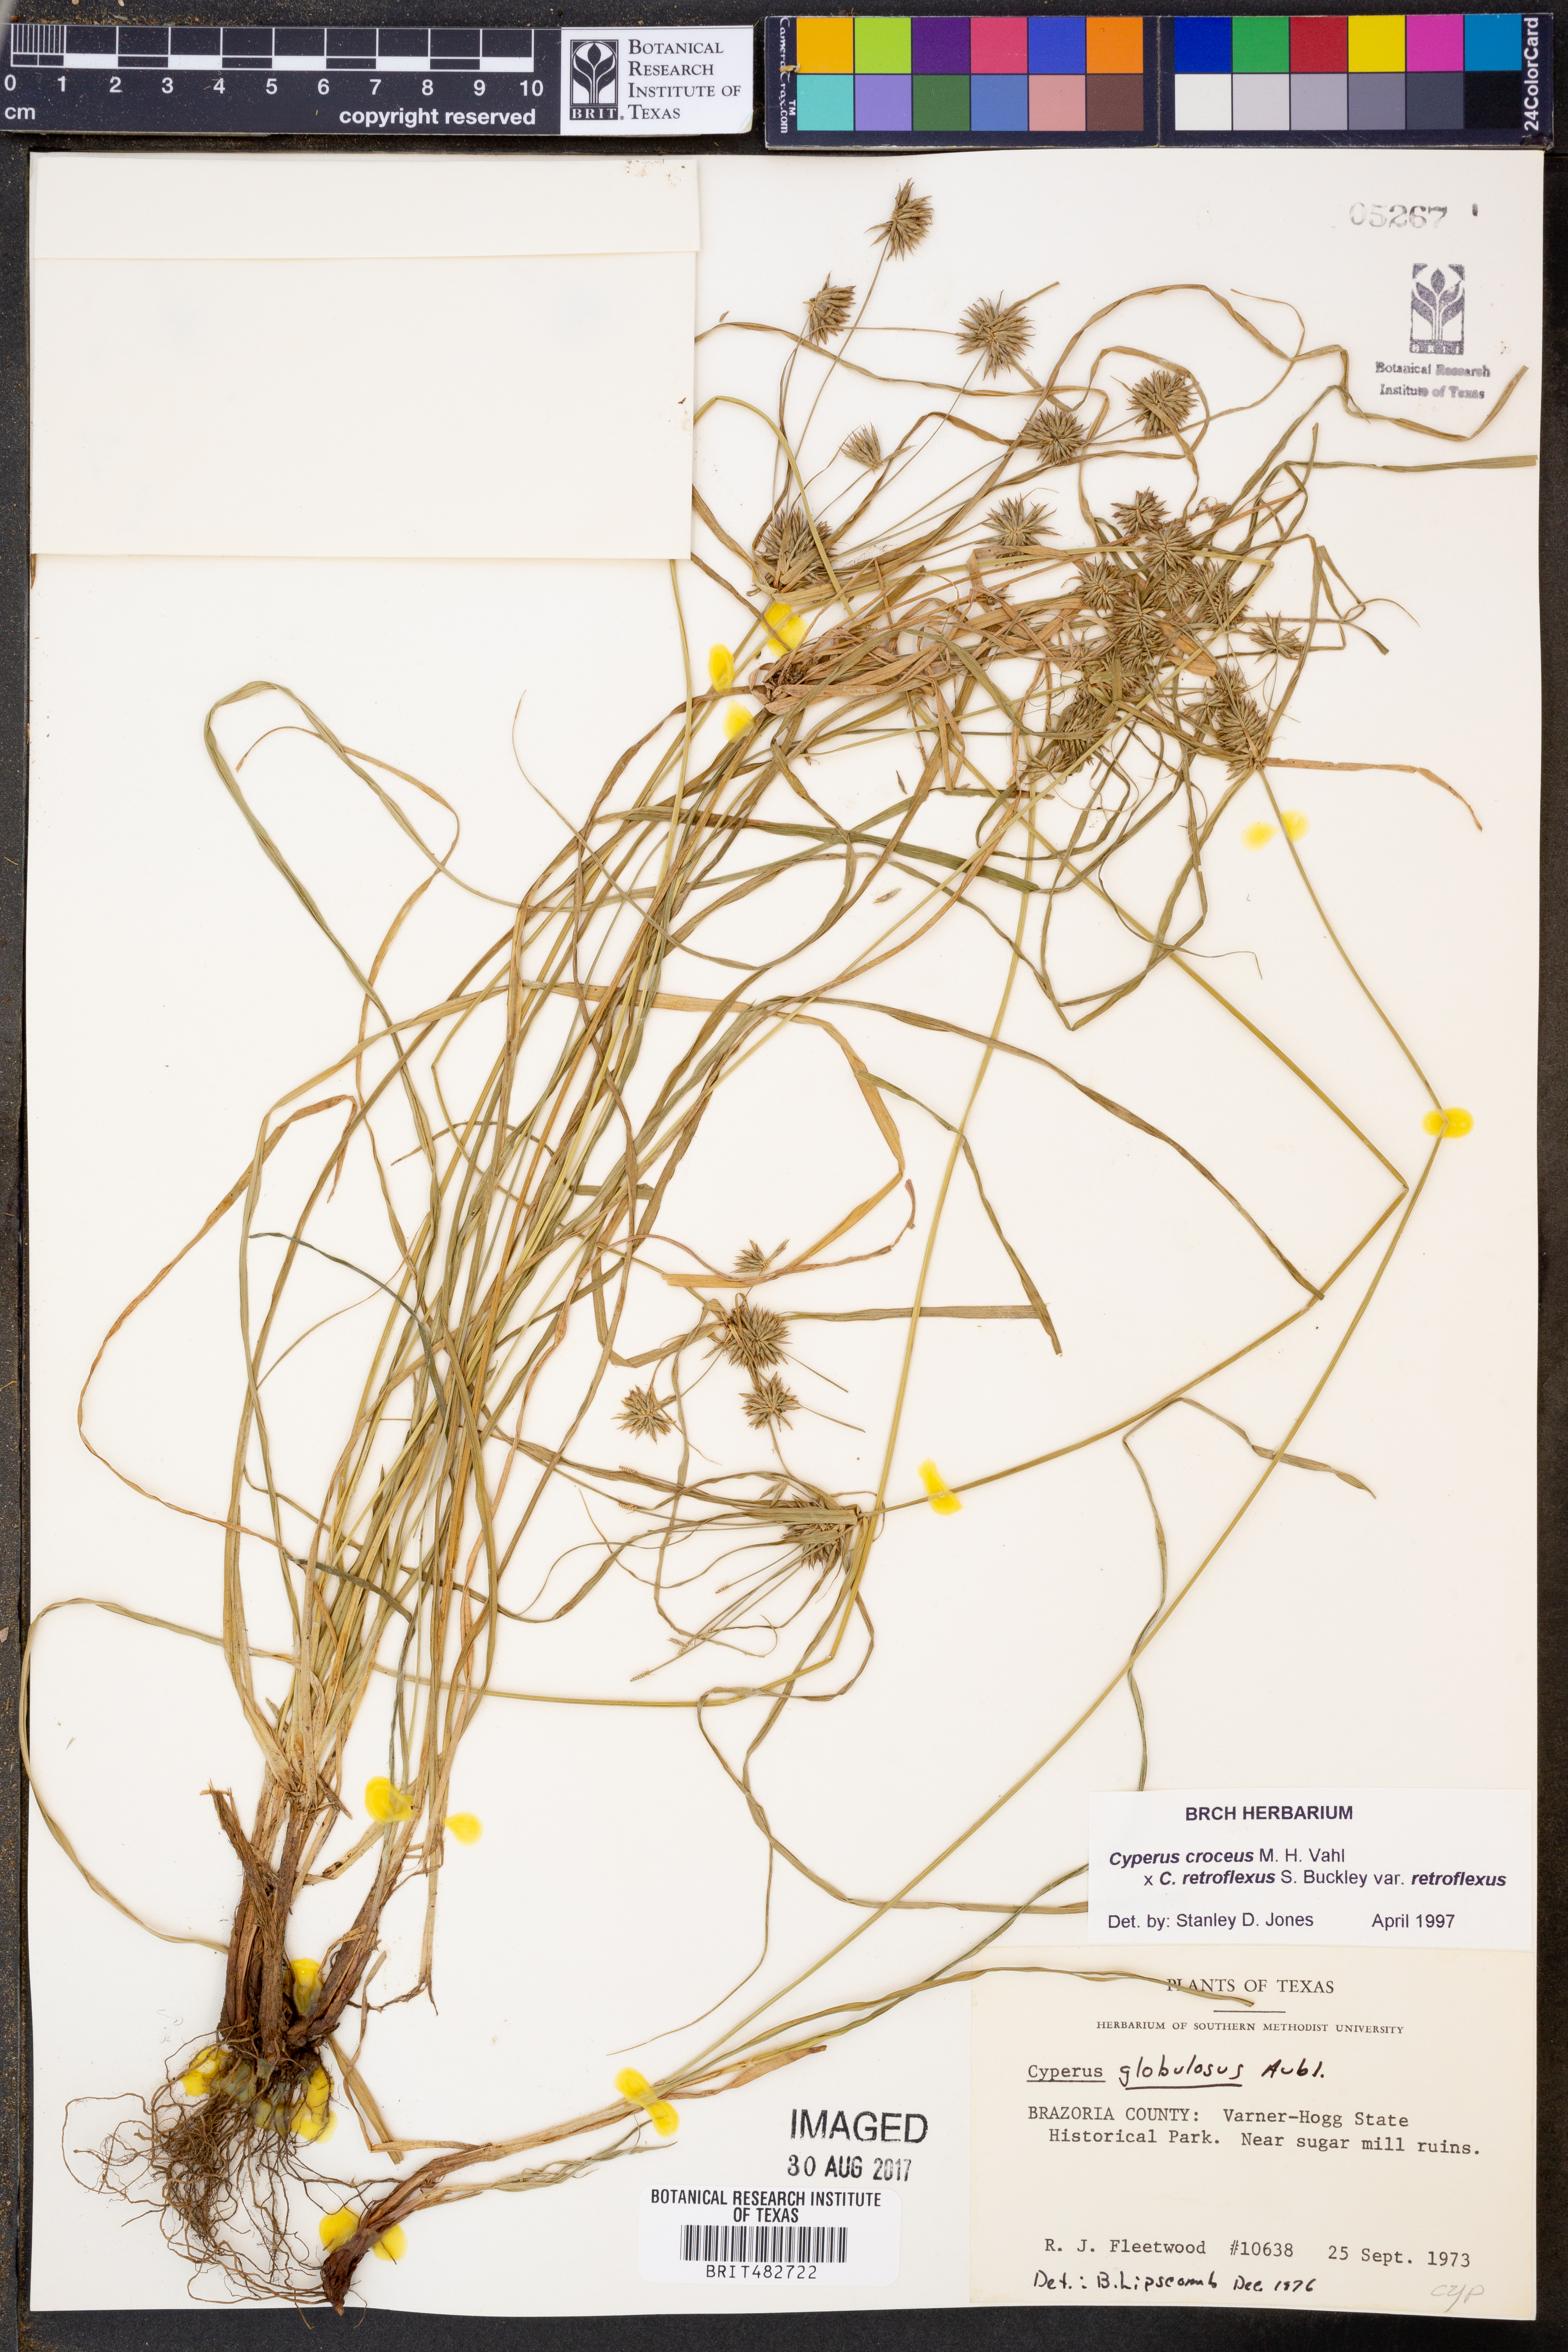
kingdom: Plantae
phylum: Tracheophyta
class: Liliopsida
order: Poales
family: Cyperaceae
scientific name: Cyperaceae
